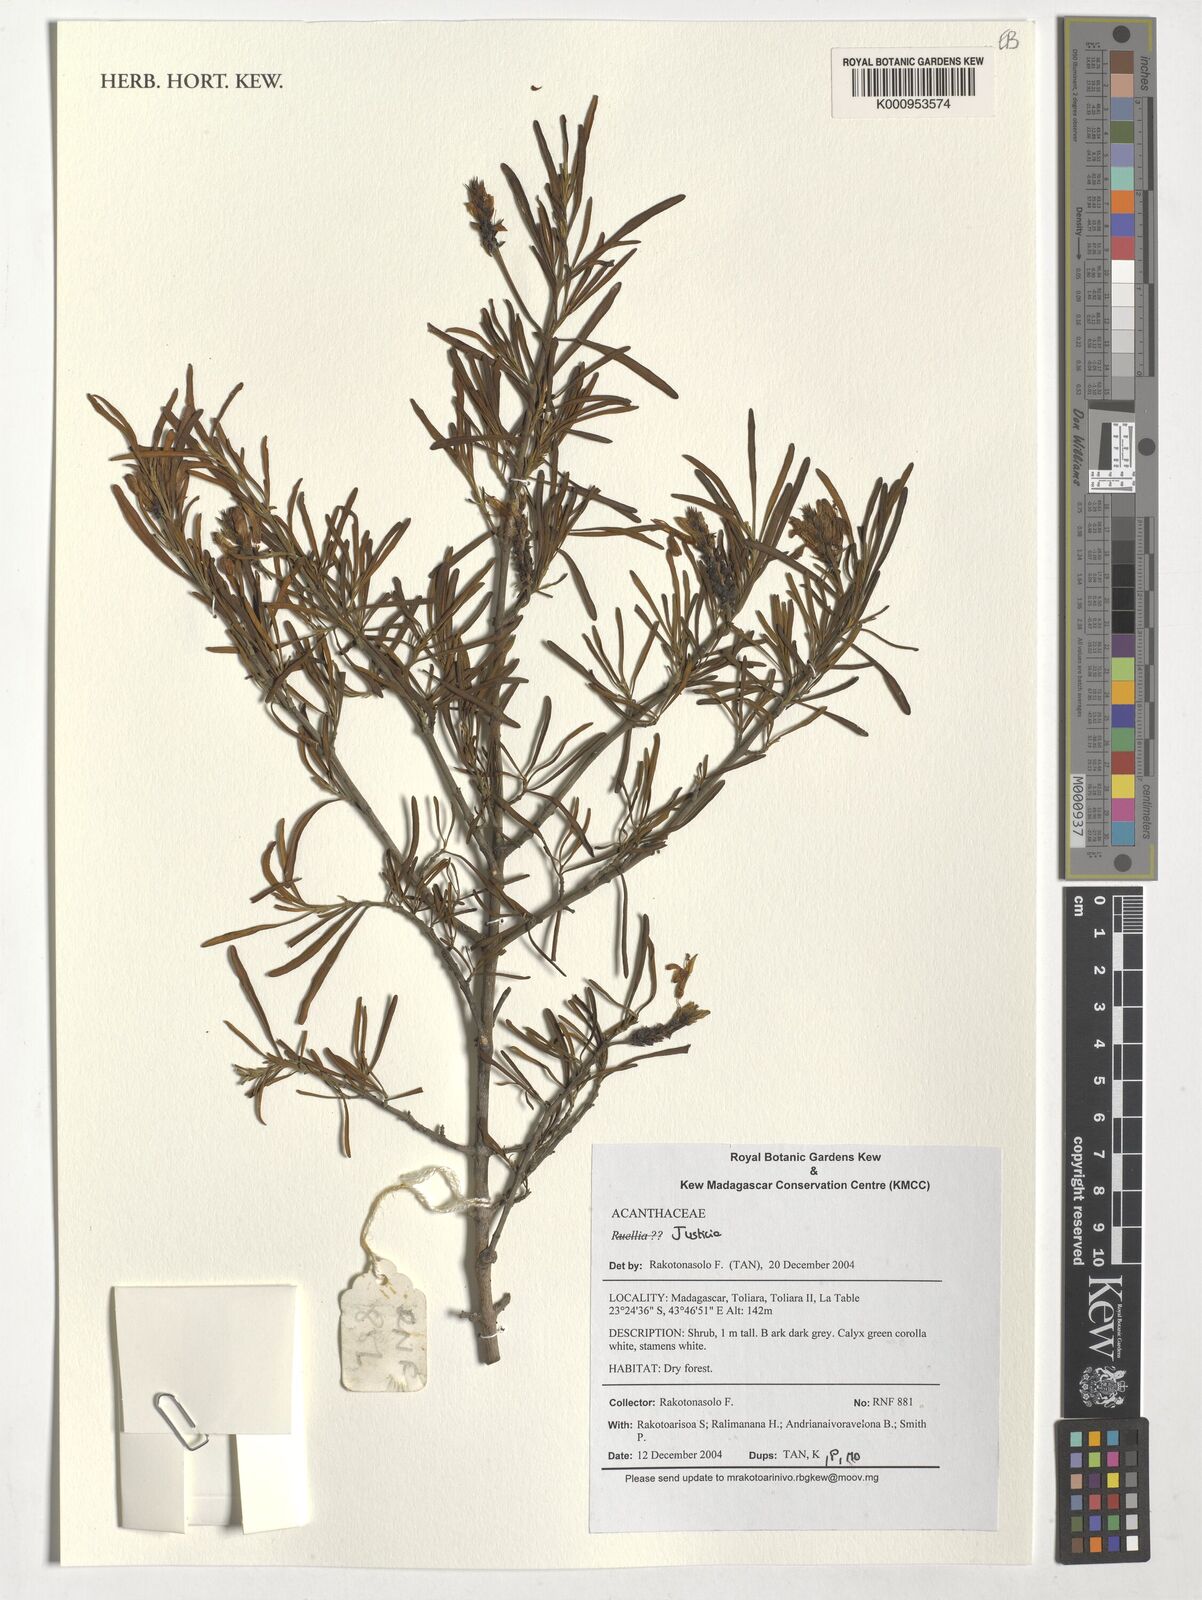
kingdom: Plantae
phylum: Tracheophyta
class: Magnoliopsida
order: Lamiales
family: Acanthaceae
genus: Justicia
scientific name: Justicia
